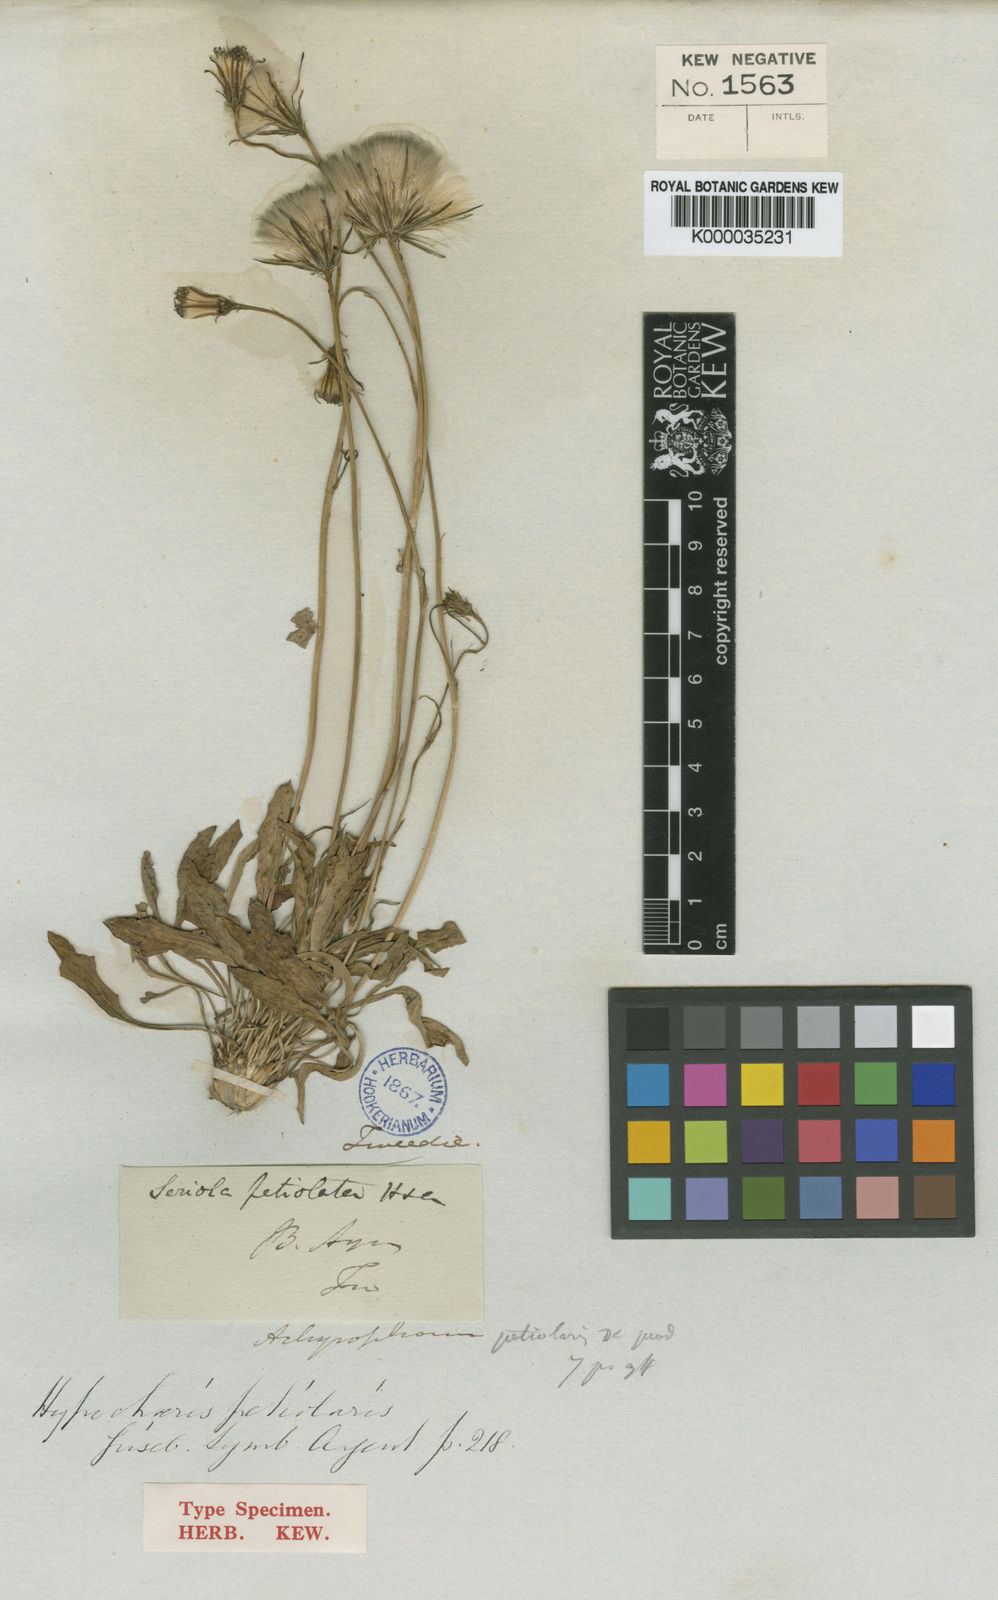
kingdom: Plantae
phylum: Tracheophyta
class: Magnoliopsida
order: Asterales
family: Asteraceae
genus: Hypochaeris
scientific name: Hypochaeris petiolaris
